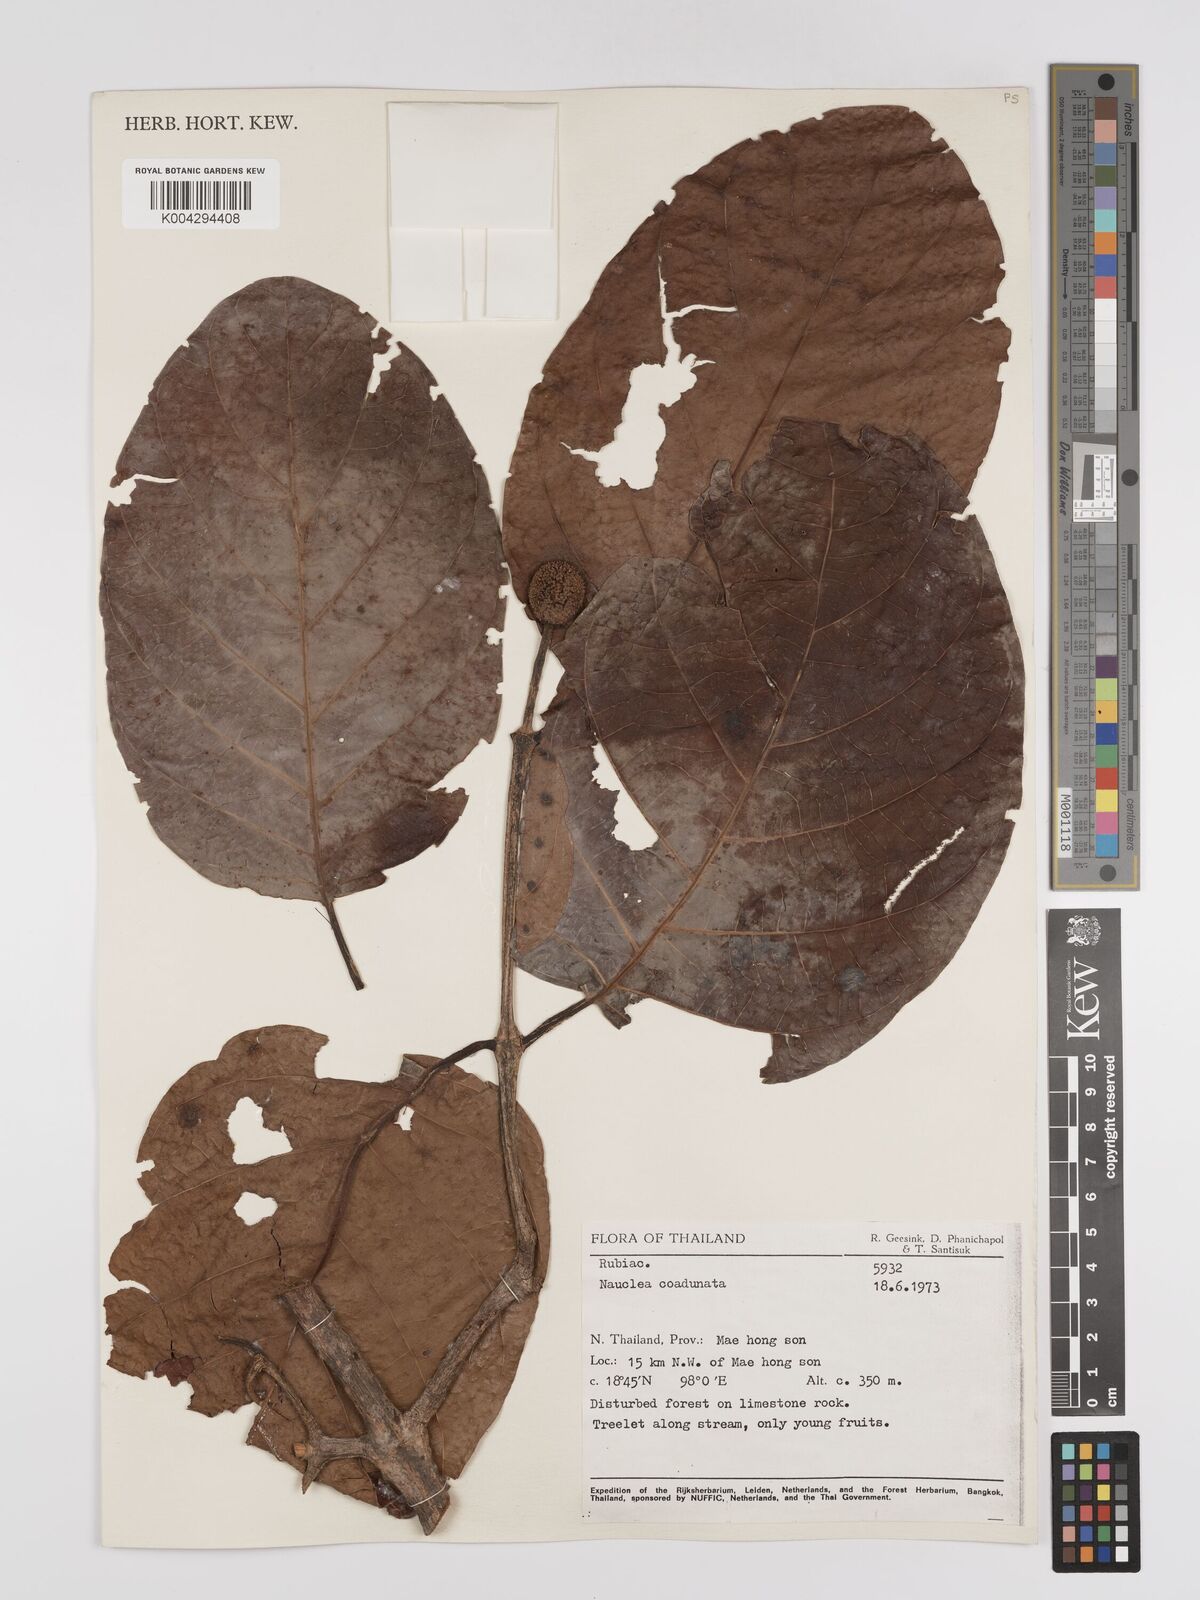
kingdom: Plantae
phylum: Tracheophyta
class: Magnoliopsida
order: Gentianales
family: Rubiaceae
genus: Nauclea
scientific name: Nauclea orientalis
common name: Leichhardt-pine
